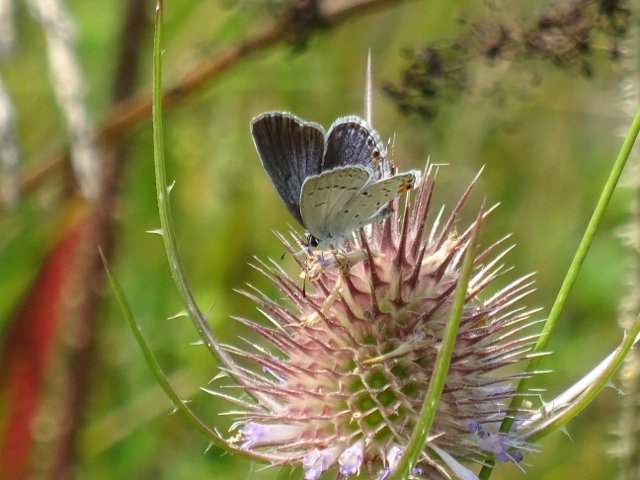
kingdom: Animalia
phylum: Arthropoda
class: Insecta
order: Lepidoptera
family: Lycaenidae
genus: Elkalyce
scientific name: Elkalyce comyntas
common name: Eastern Tailed-Blue
